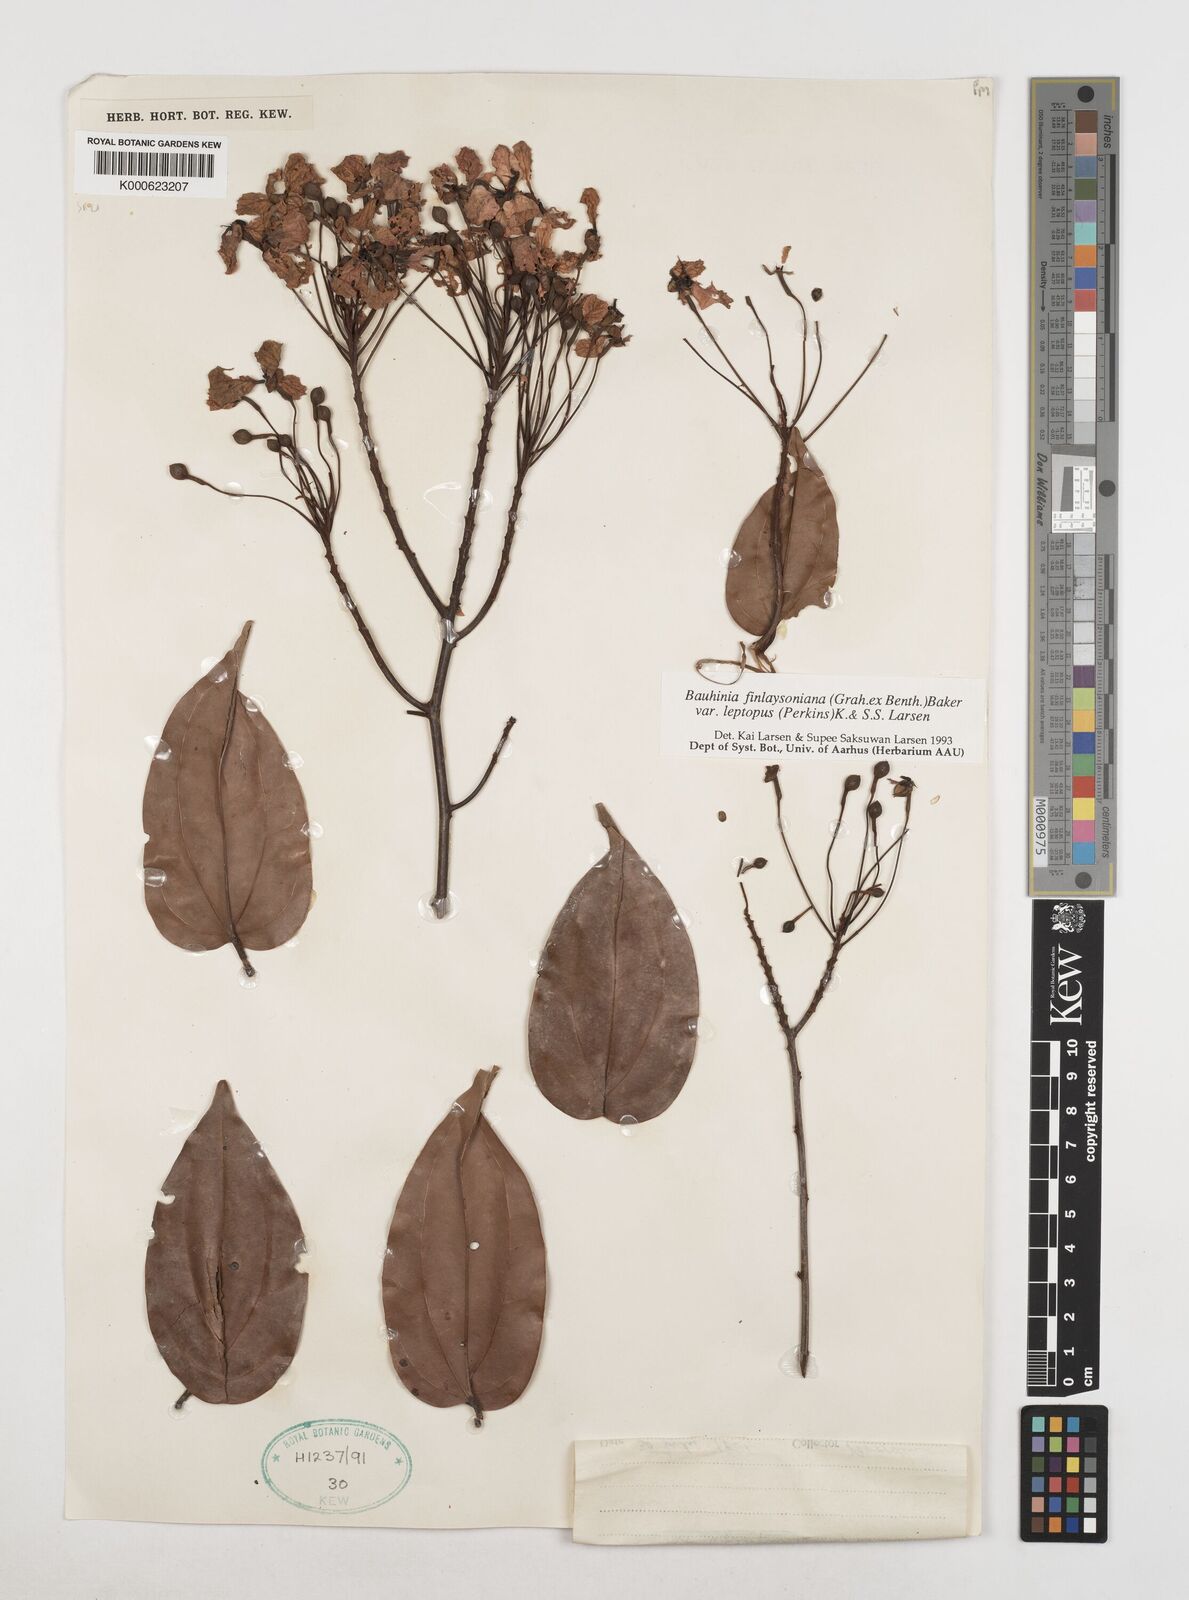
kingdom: Plantae
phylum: Tracheophyta
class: Magnoliopsida
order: Fabales
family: Fabaceae
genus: Phanera
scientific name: Phanera finlaysoniana
